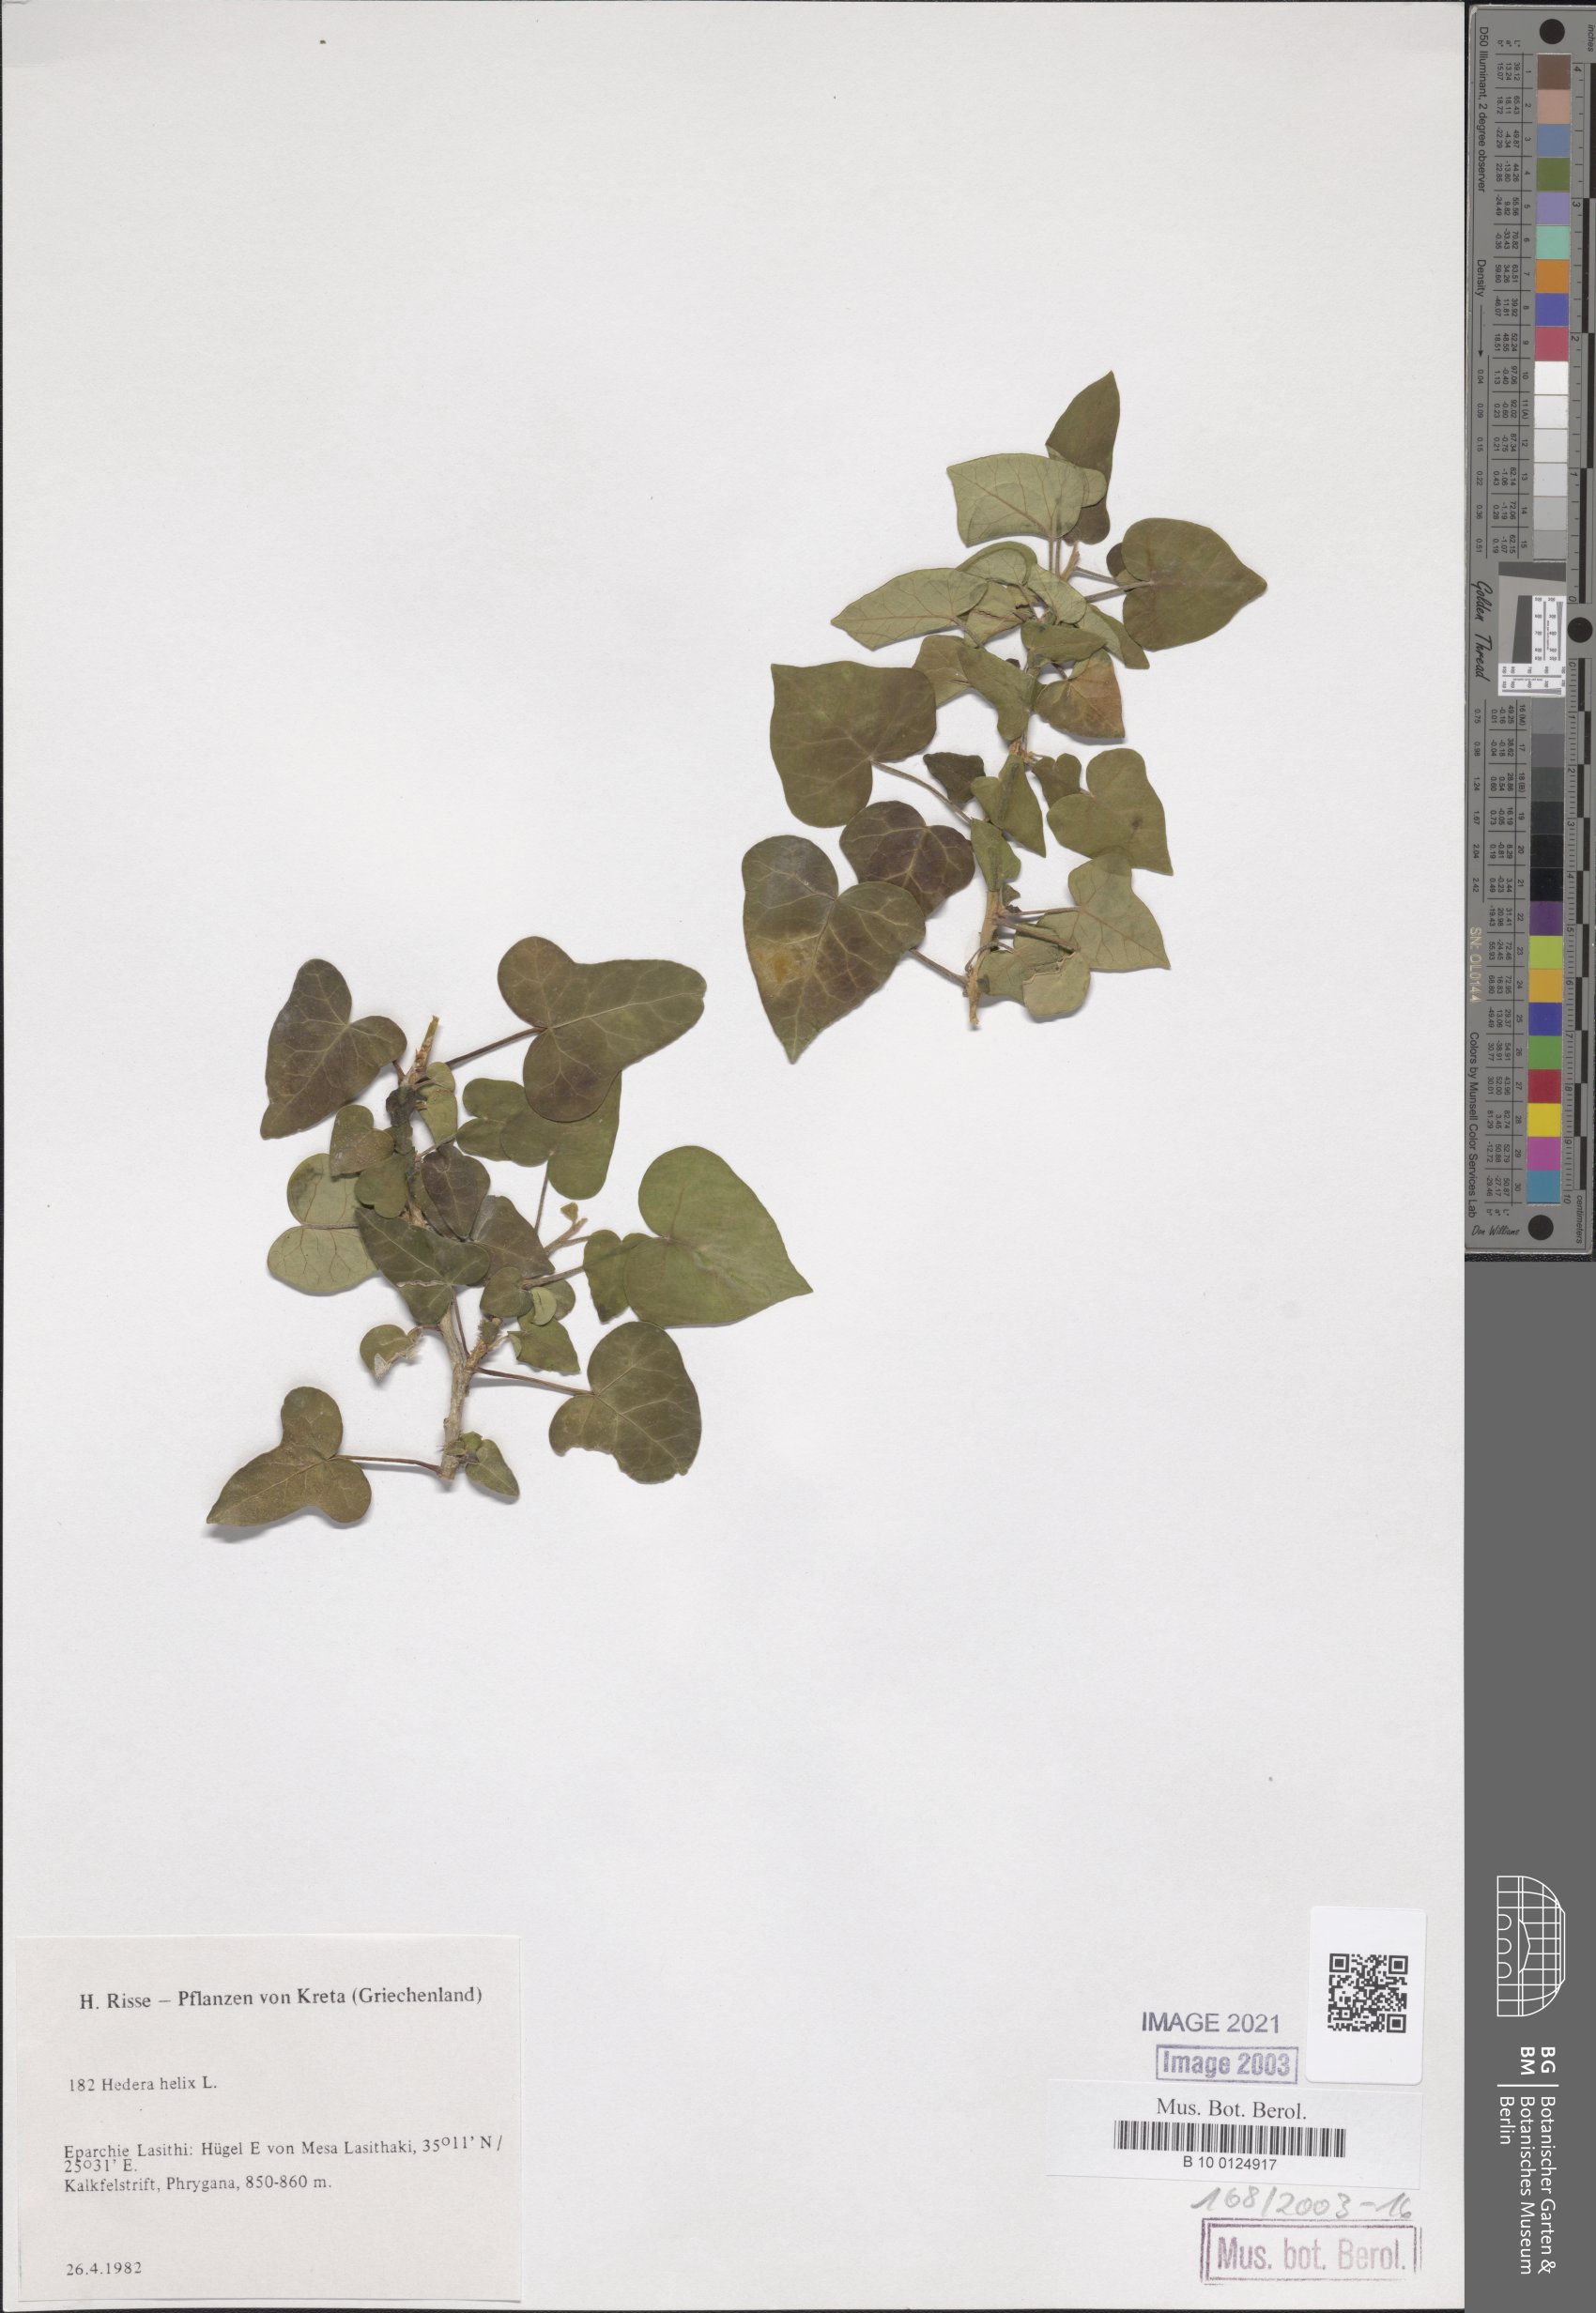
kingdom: Plantae
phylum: Tracheophyta
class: Magnoliopsida
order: Apiales
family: Araliaceae
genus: Hedera
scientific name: Hedera helix
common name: Ivy
